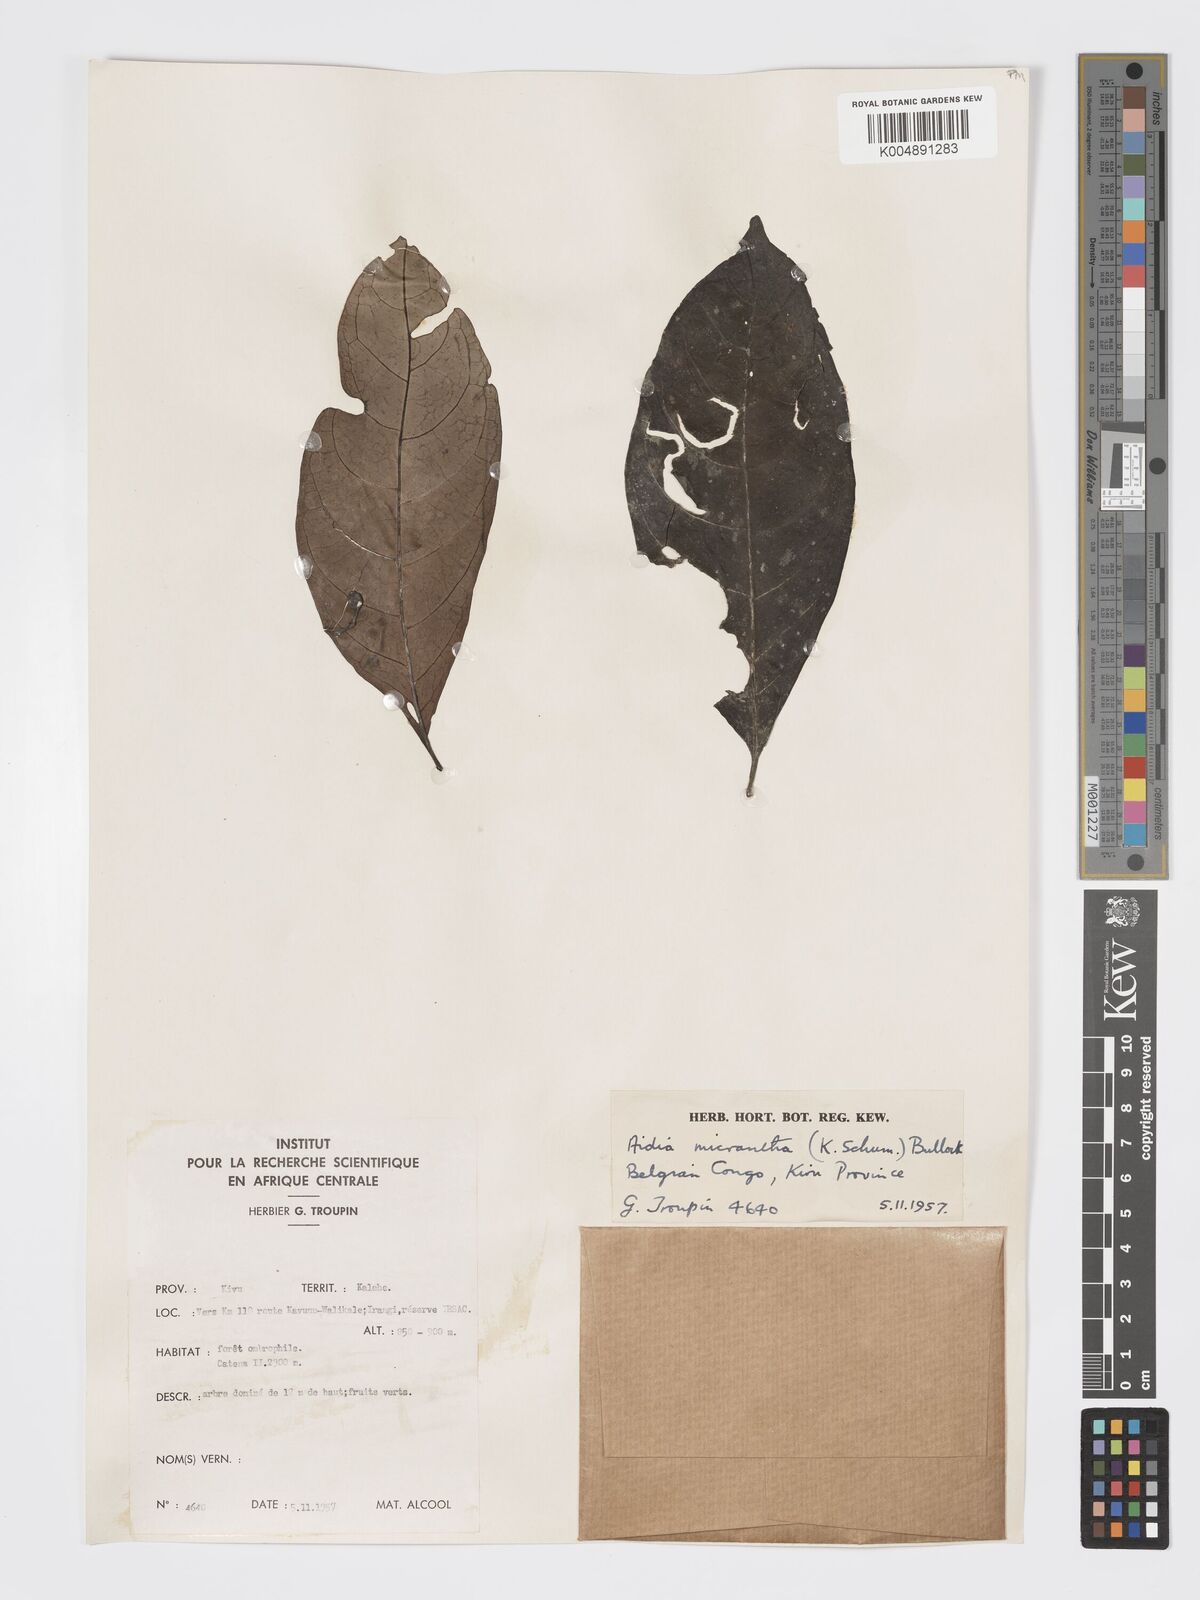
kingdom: Plantae
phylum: Tracheophyta
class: Magnoliopsida
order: Gentianales
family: Rubiaceae
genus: Aidia
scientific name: Aidia micrantha
